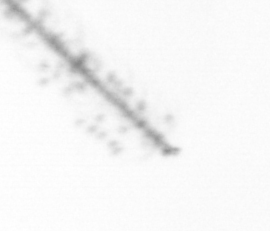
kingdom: Chromista
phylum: Ochrophyta
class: Bacillariophyceae
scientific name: Bacillariophyceae
